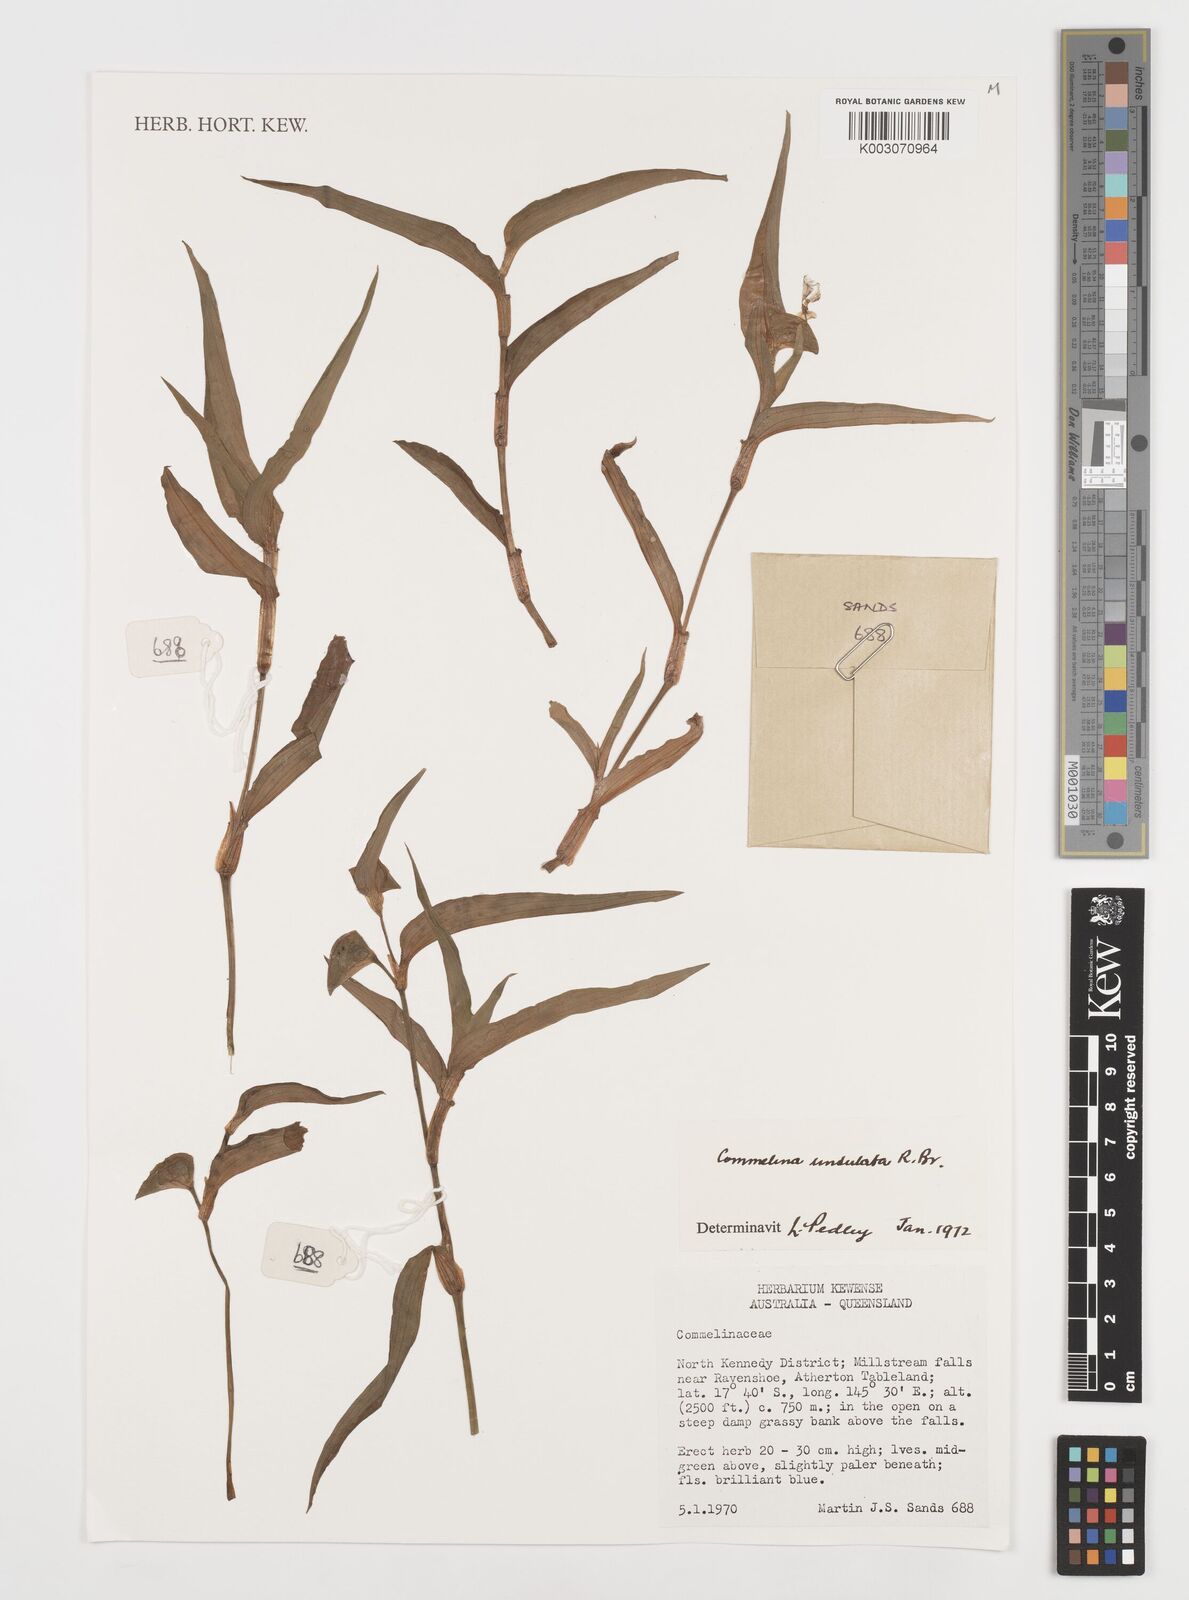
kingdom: Plantae
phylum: Tracheophyta
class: Liliopsida
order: Commelinales
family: Commelinaceae
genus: Commelina
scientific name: Commelina undulata
